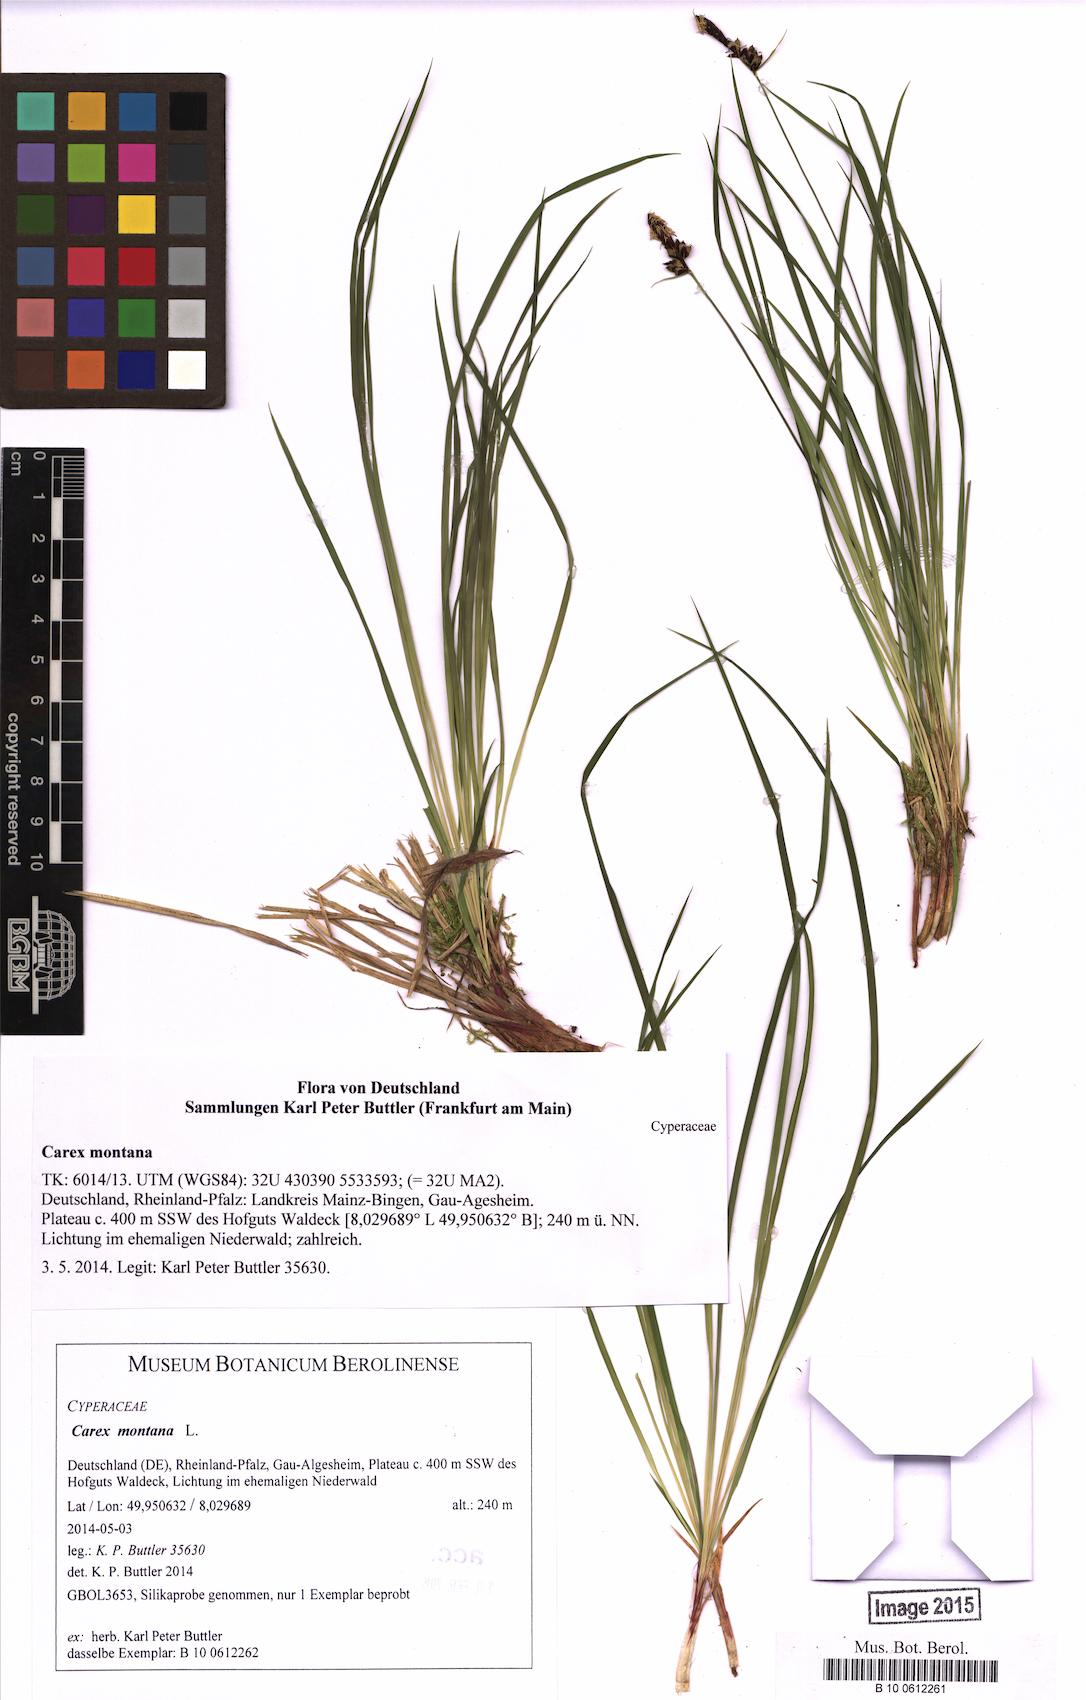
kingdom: Plantae
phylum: Tracheophyta
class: Liliopsida
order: Poales
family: Cyperaceae
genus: Carex
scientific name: Carex montana
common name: Soft-leaved sedge
